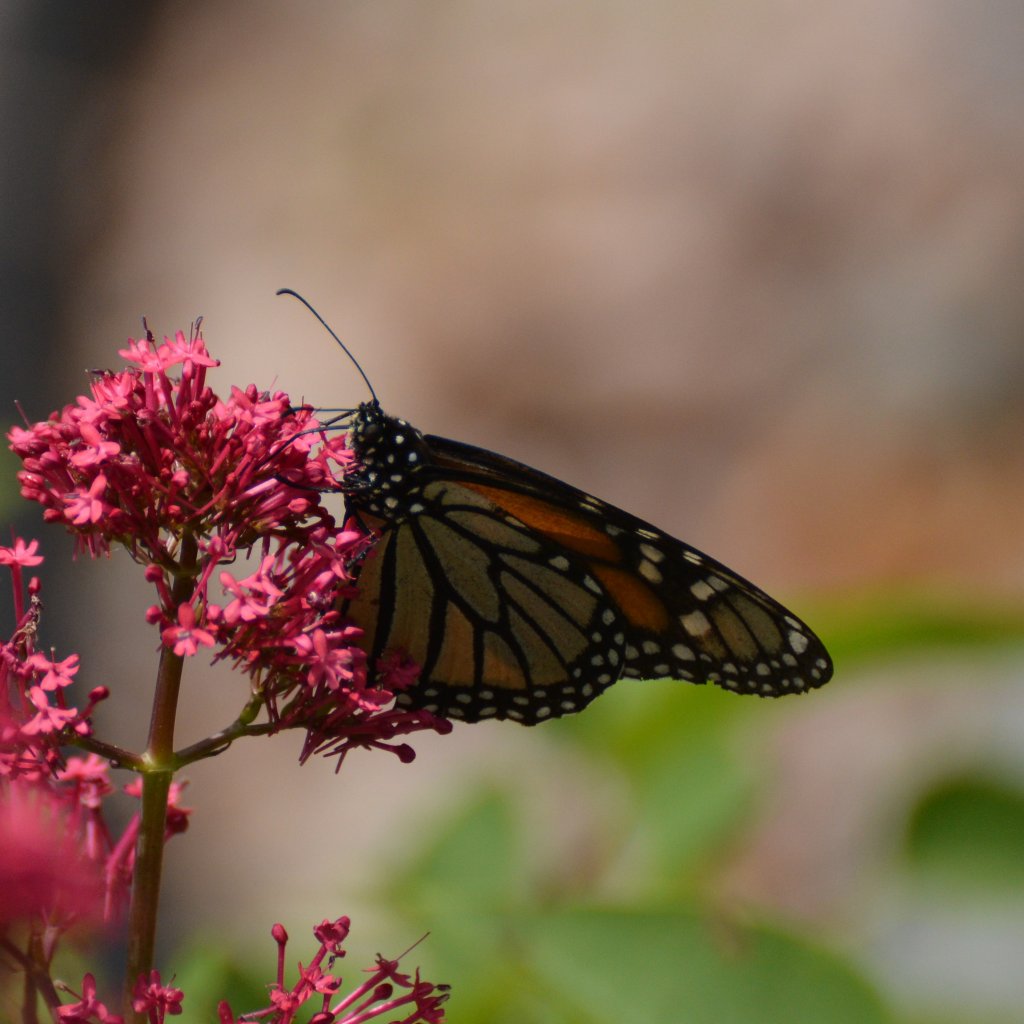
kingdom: Animalia
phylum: Arthropoda
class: Insecta
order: Lepidoptera
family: Nymphalidae
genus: Danaus
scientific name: Danaus plexippus
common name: Monarch
